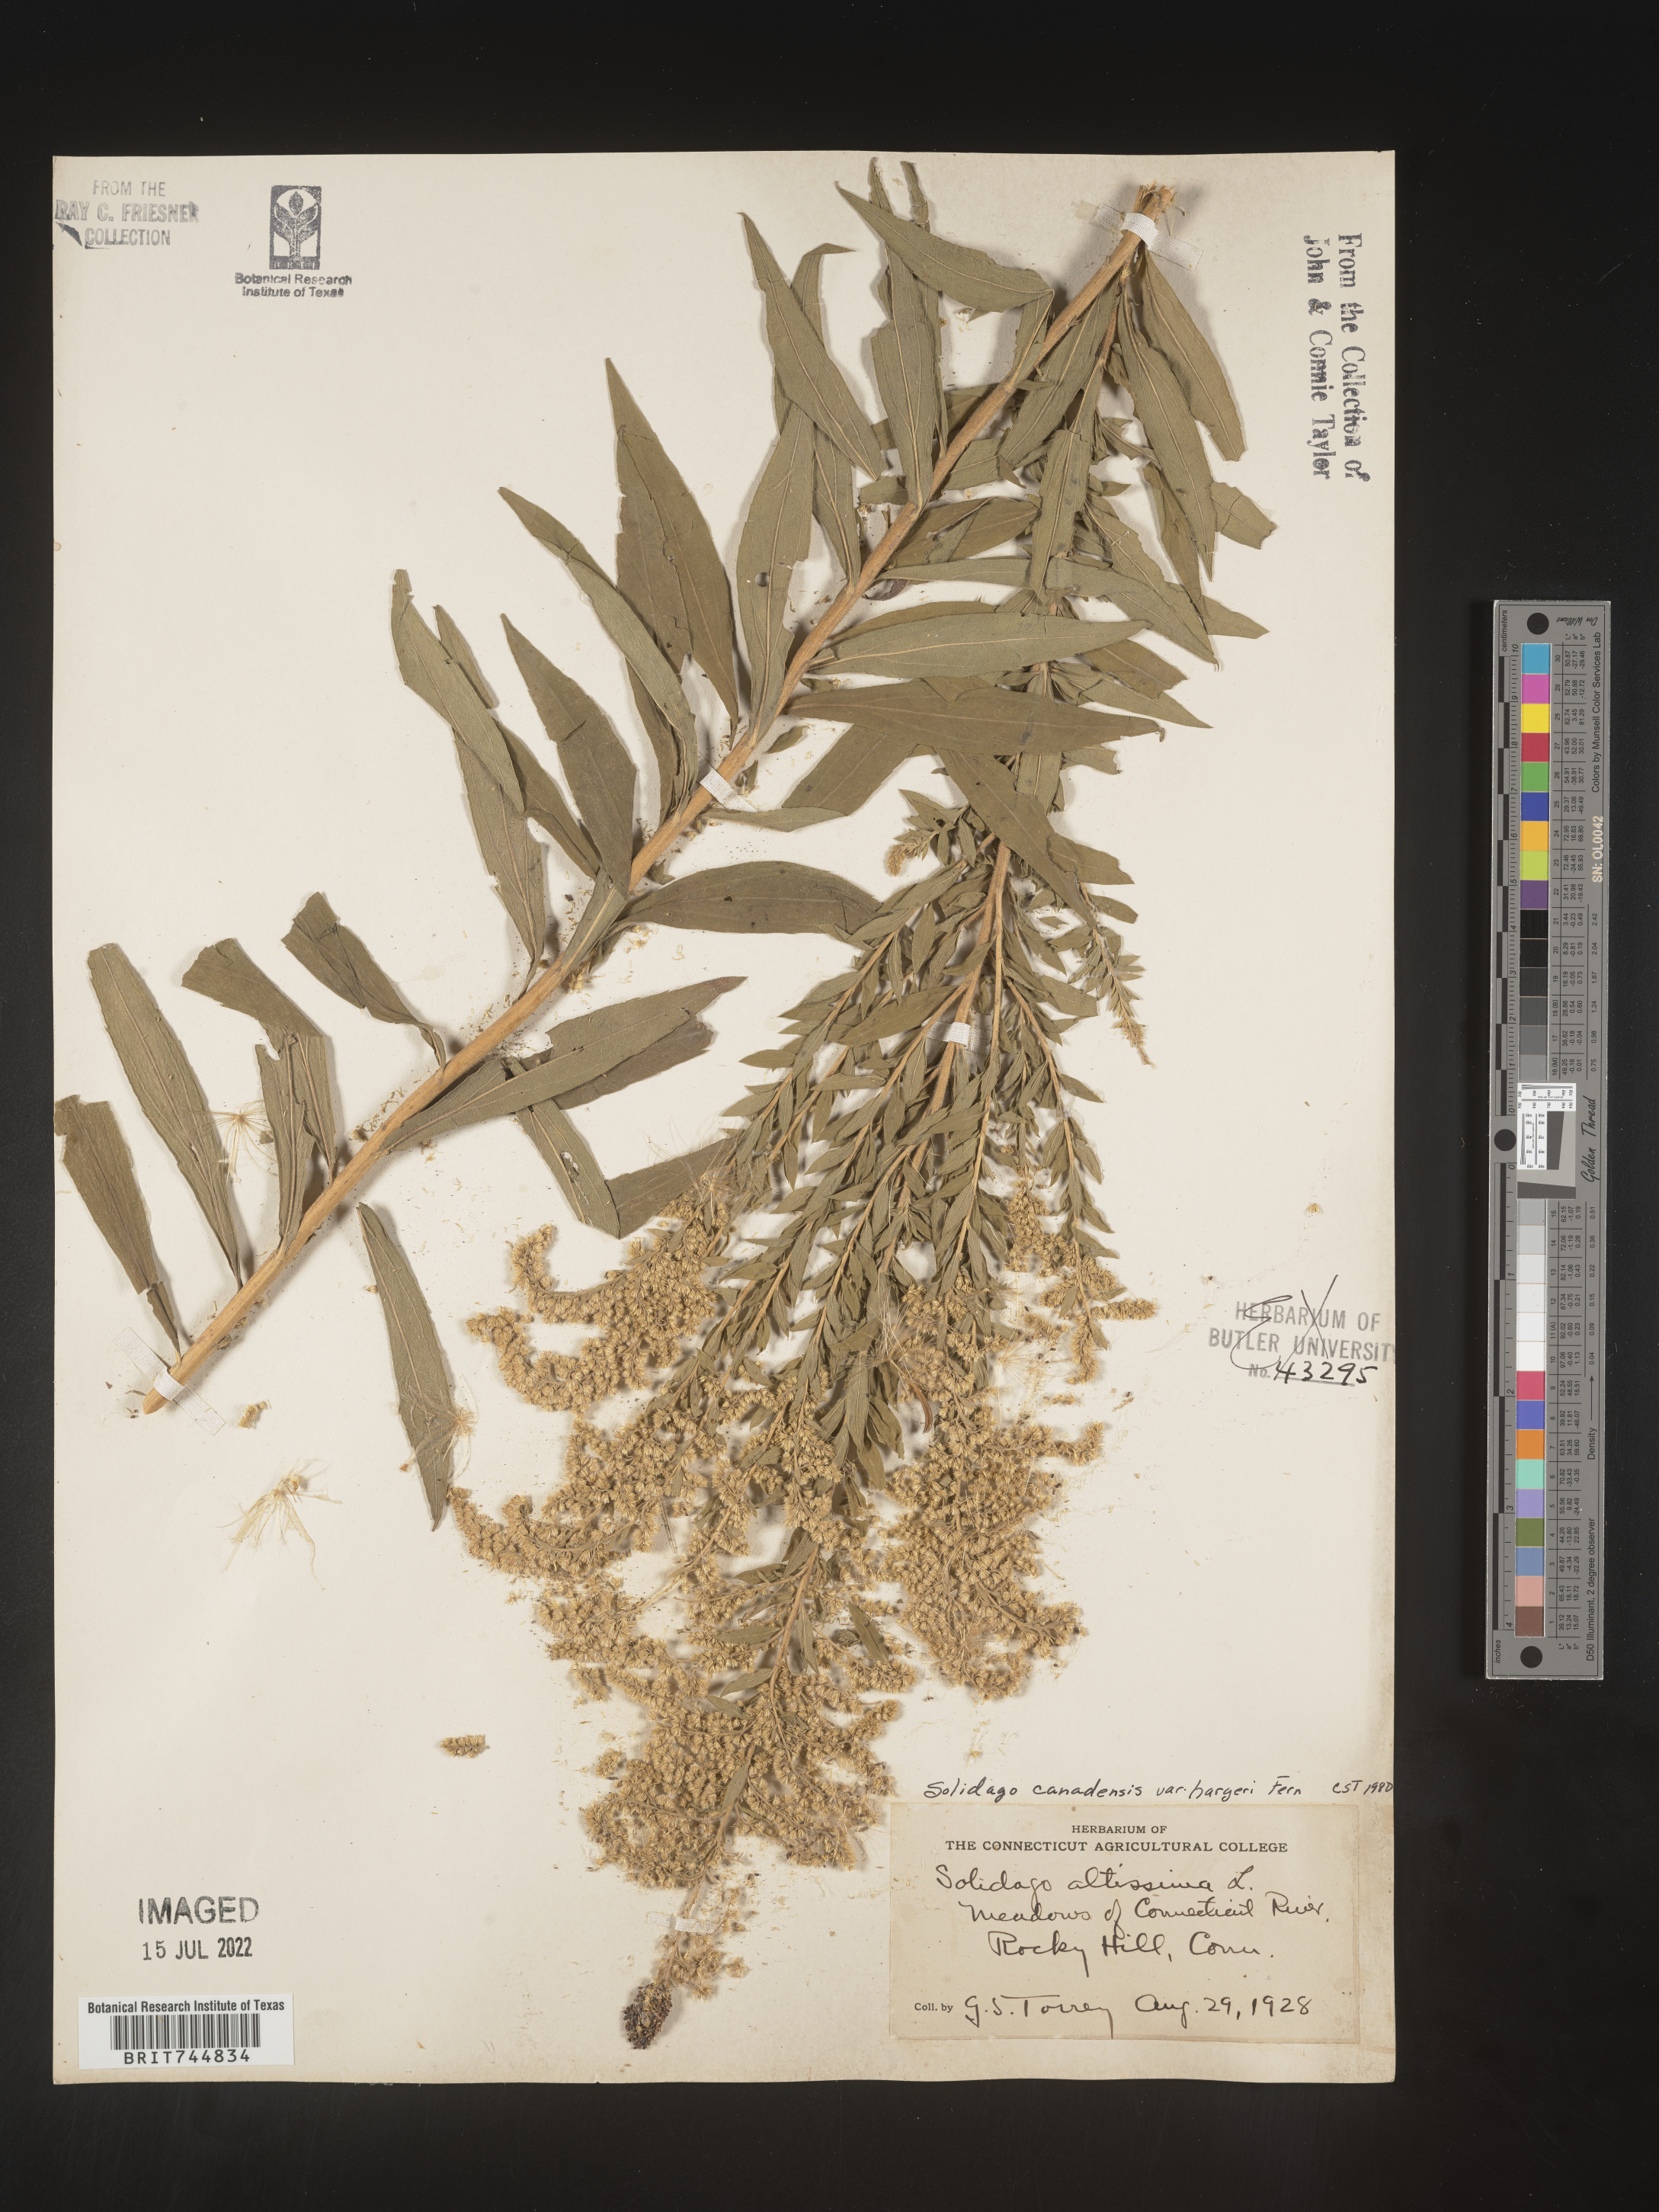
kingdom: Plantae
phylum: Tracheophyta
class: Magnoliopsida
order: Asterales
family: Asteraceae
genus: Solidago
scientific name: Solidago canadensis
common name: Canada goldenrod
